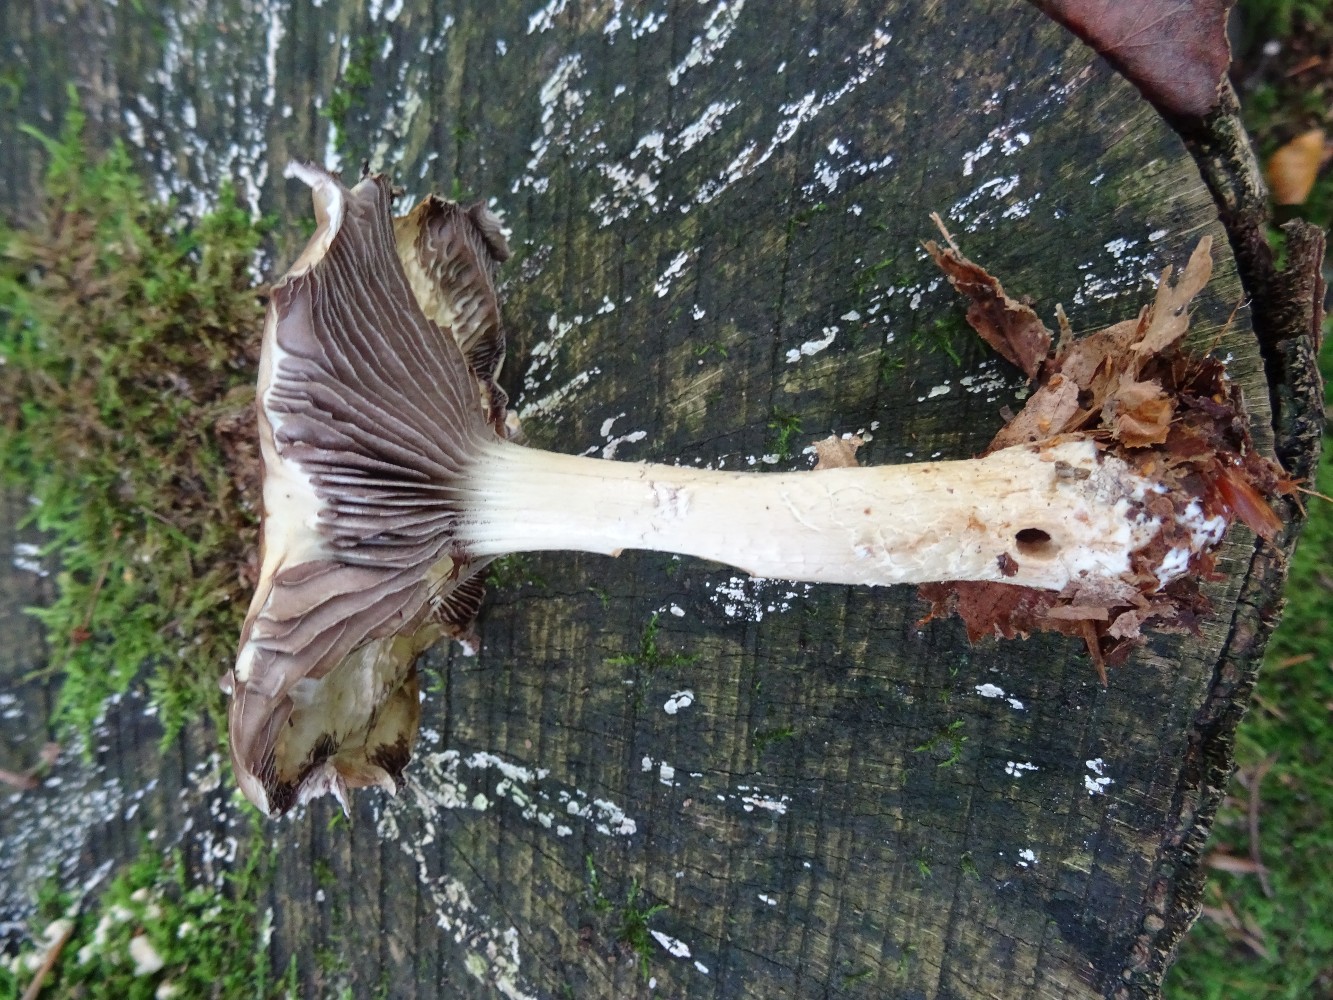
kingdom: Fungi
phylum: Basidiomycota
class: Agaricomycetes
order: Agaricales
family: Strophariaceae
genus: Stropharia
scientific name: Stropharia hornemannii
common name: nordisk bredblad
